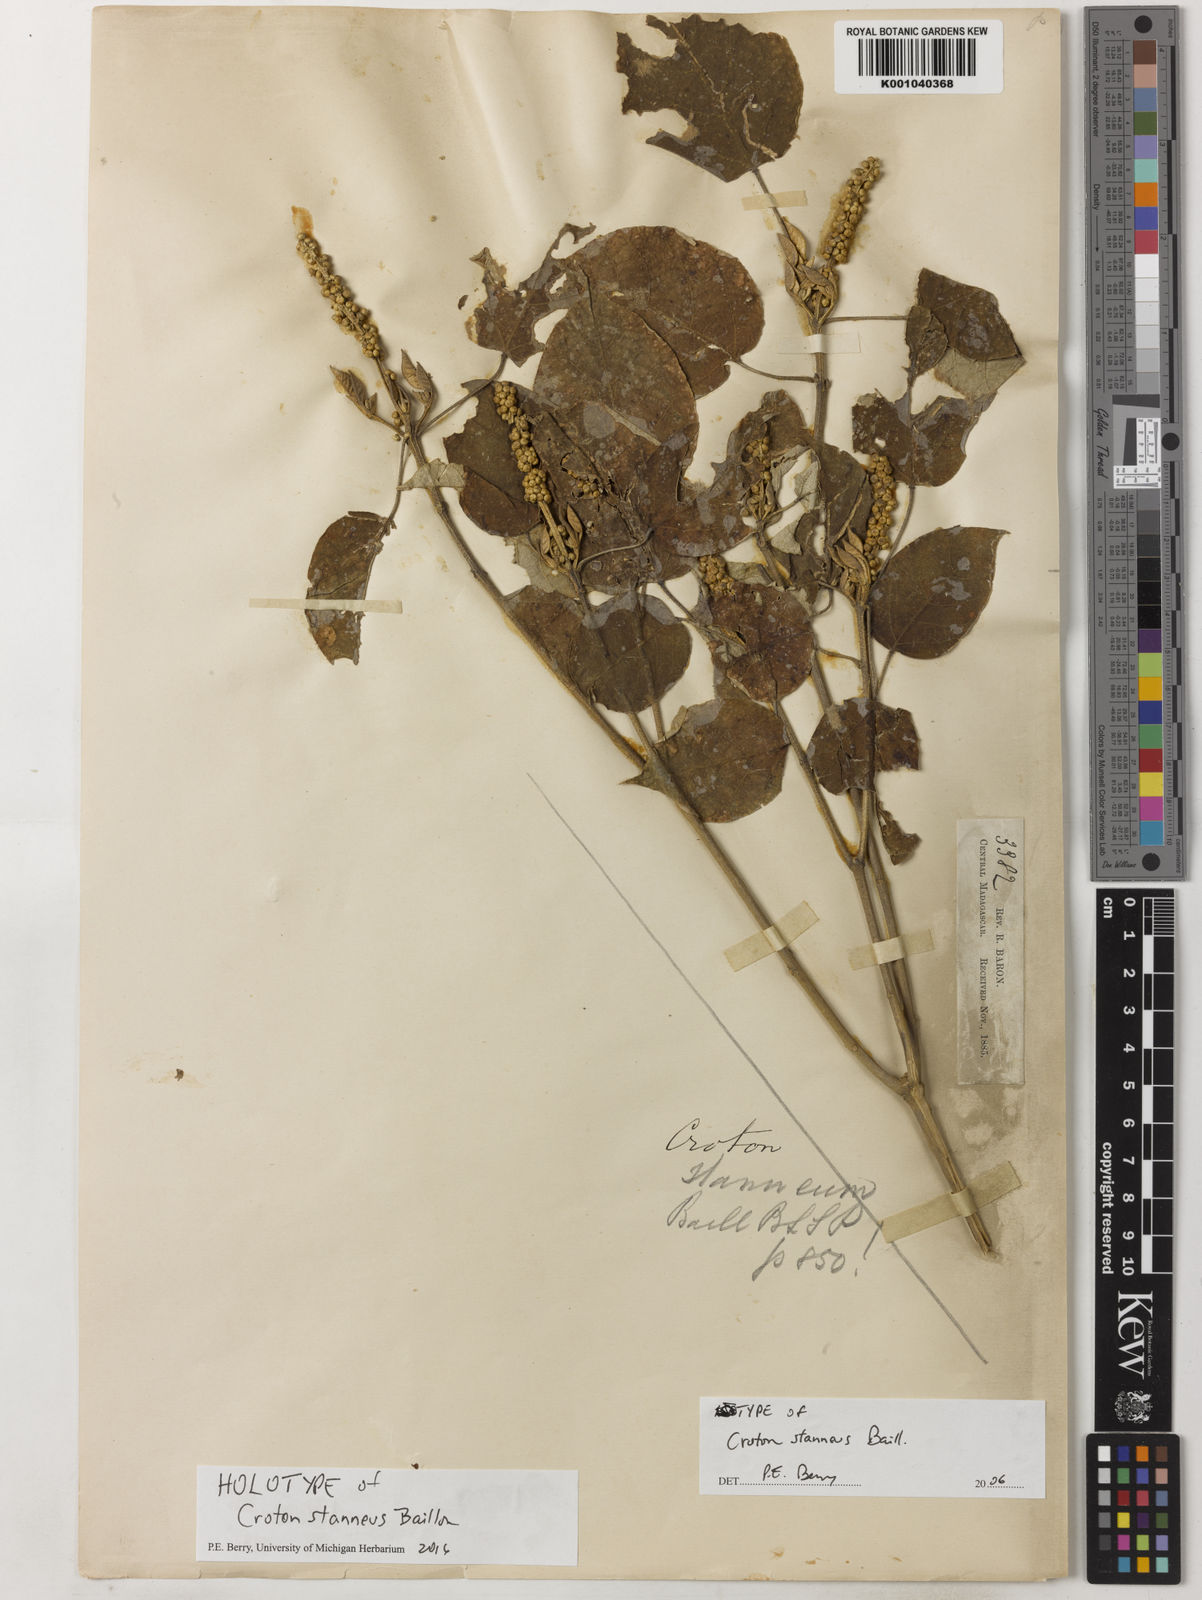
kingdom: Plantae
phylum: Tracheophyta
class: Magnoliopsida
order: Malpighiales
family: Euphorbiaceae
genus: Croton
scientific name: Croton stanneus
